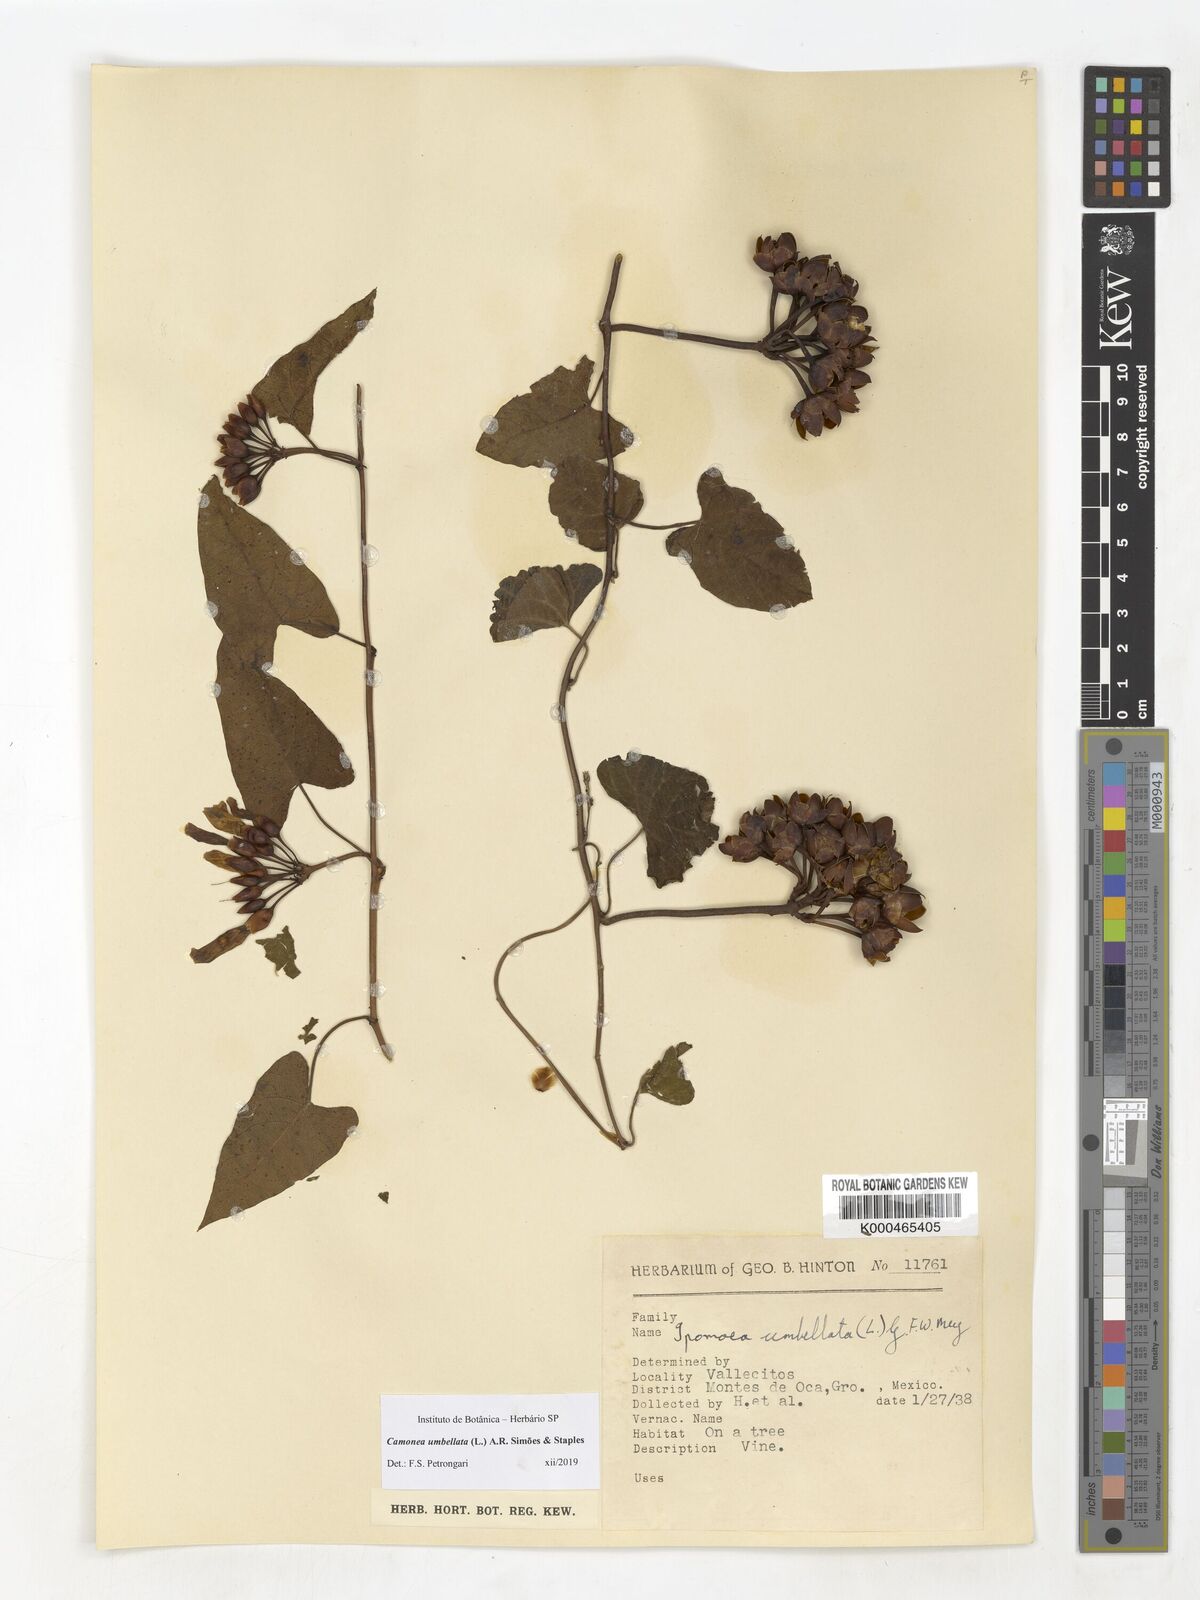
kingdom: Plantae
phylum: Tracheophyta
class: Magnoliopsida
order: Solanales
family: Convolvulaceae
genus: Camonea
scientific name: Camonea umbellata
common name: Hogvine
